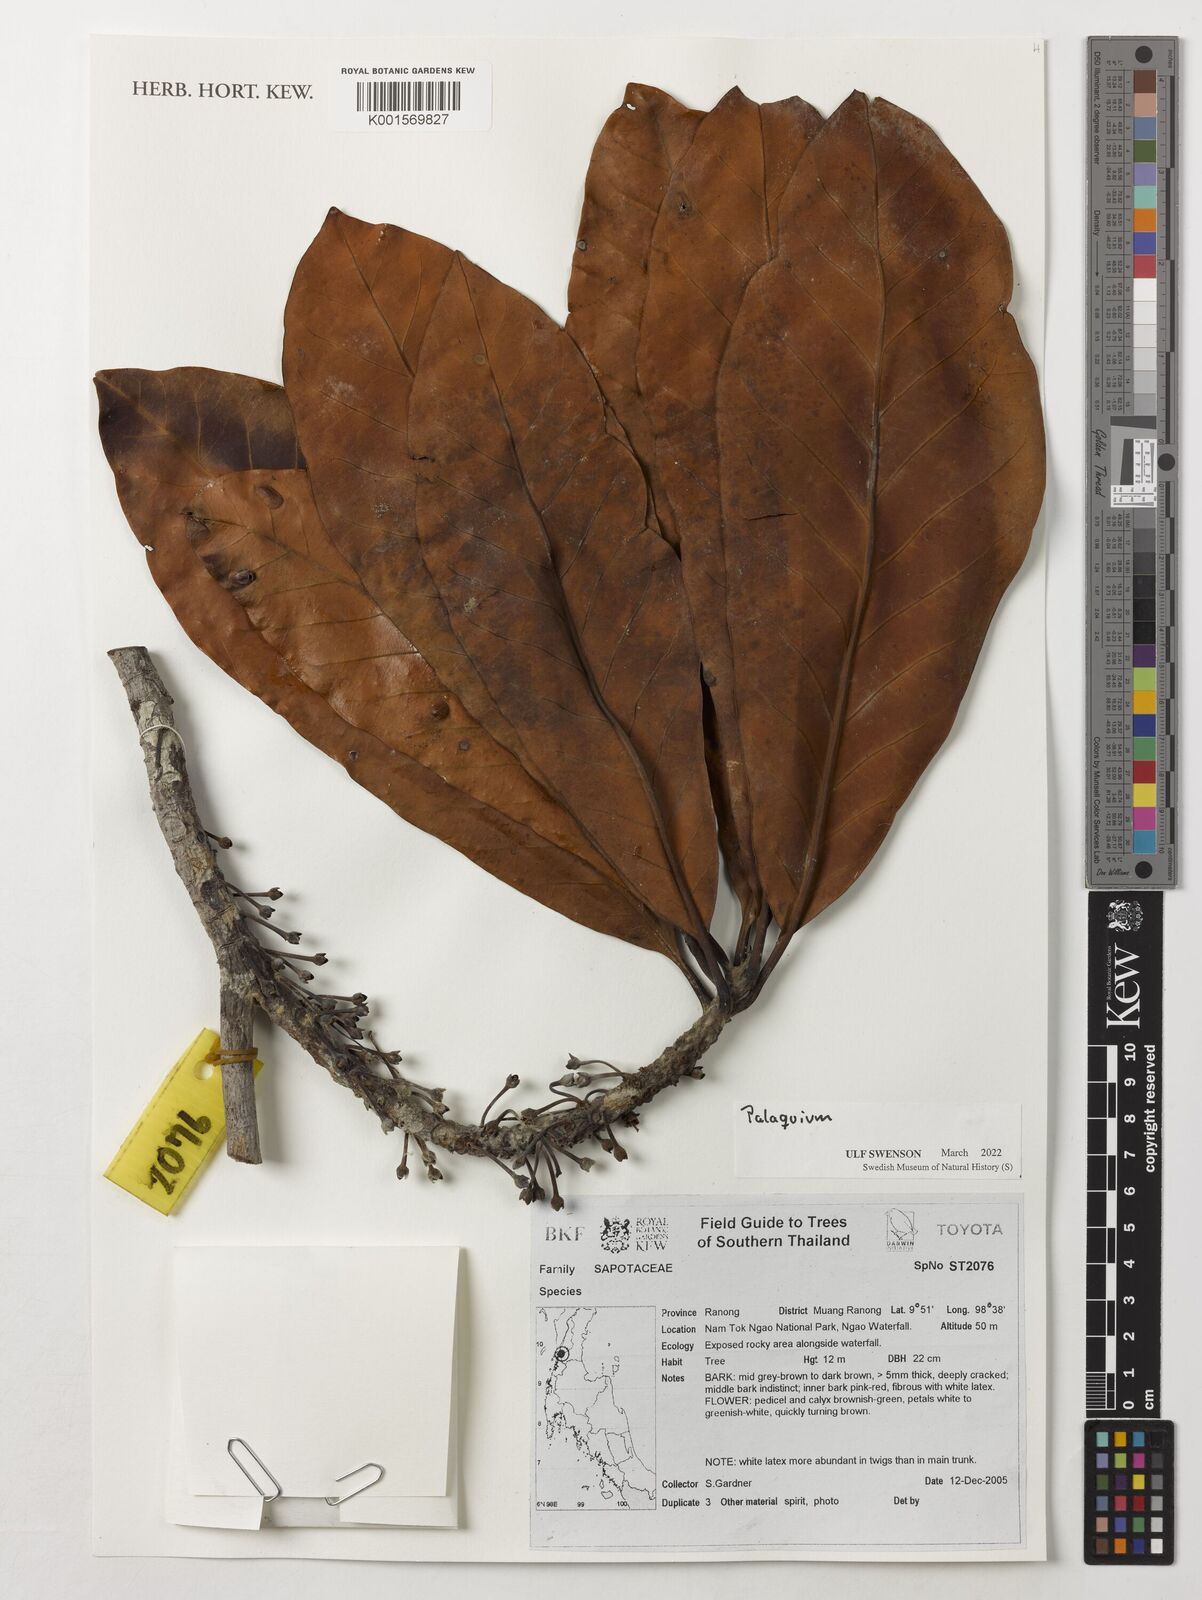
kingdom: Plantae
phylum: Tracheophyta
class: Magnoliopsida
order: Ericales
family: Sapotaceae
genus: Palaquium
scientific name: Palaquium
